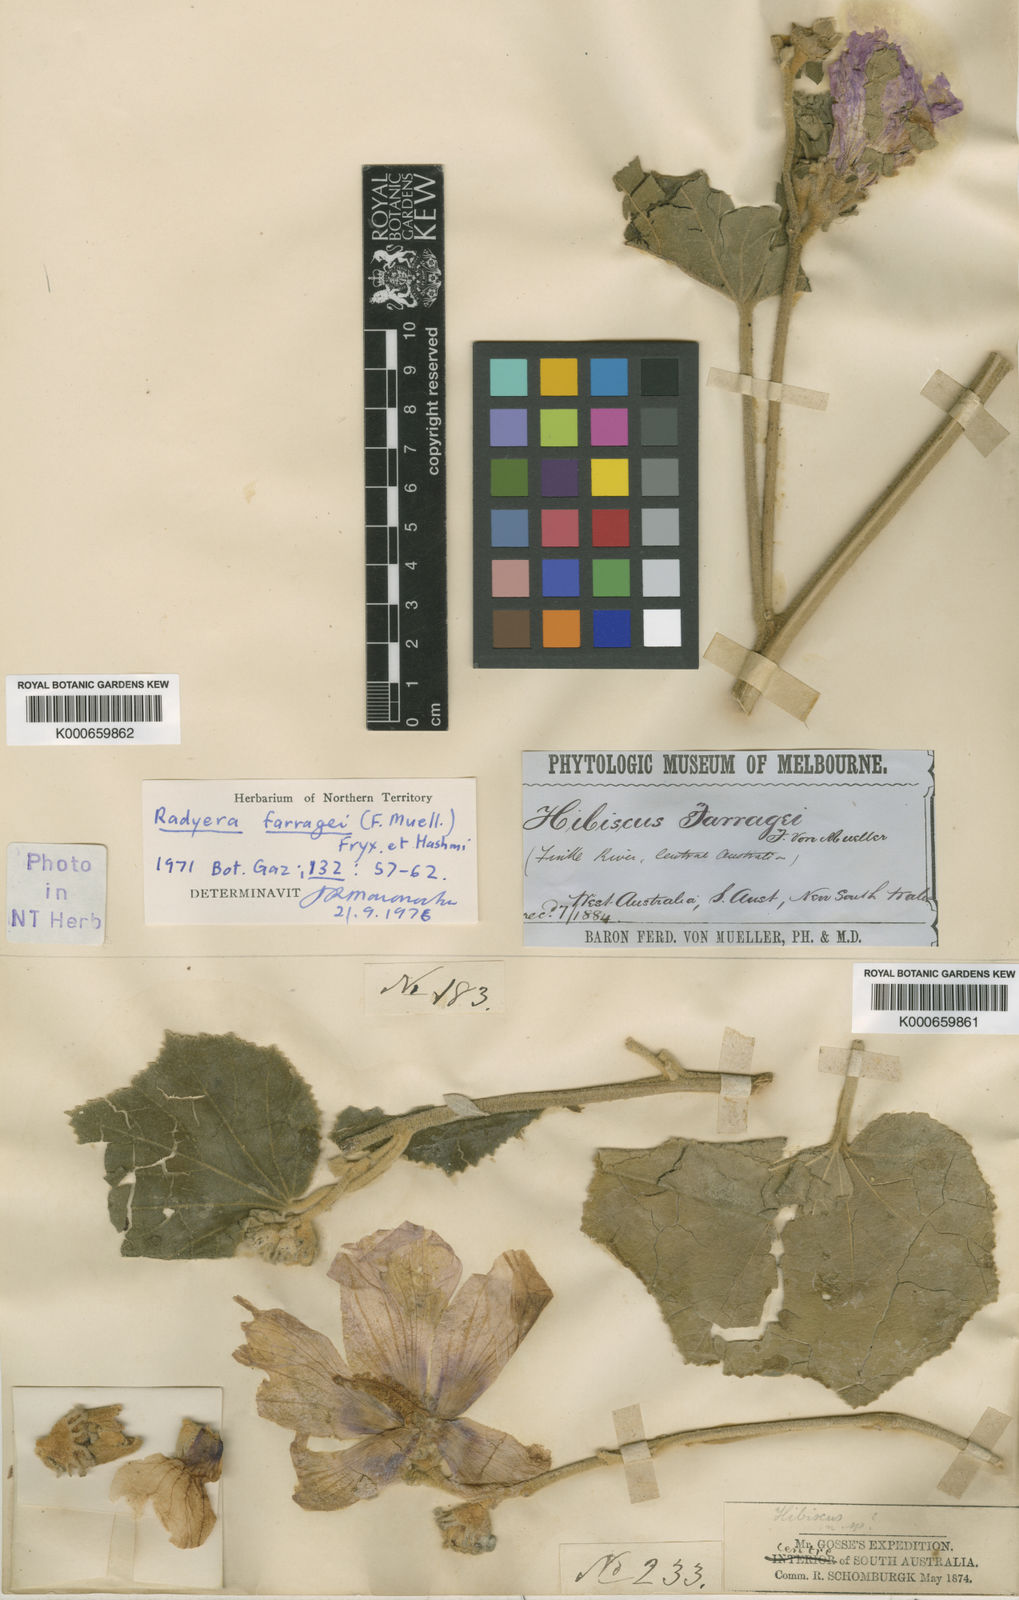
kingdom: Plantae
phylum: Tracheophyta
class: Magnoliopsida
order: Malvales
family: Malvaceae
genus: Radyera
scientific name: Radyera farragei
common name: Desert rose-mallow
